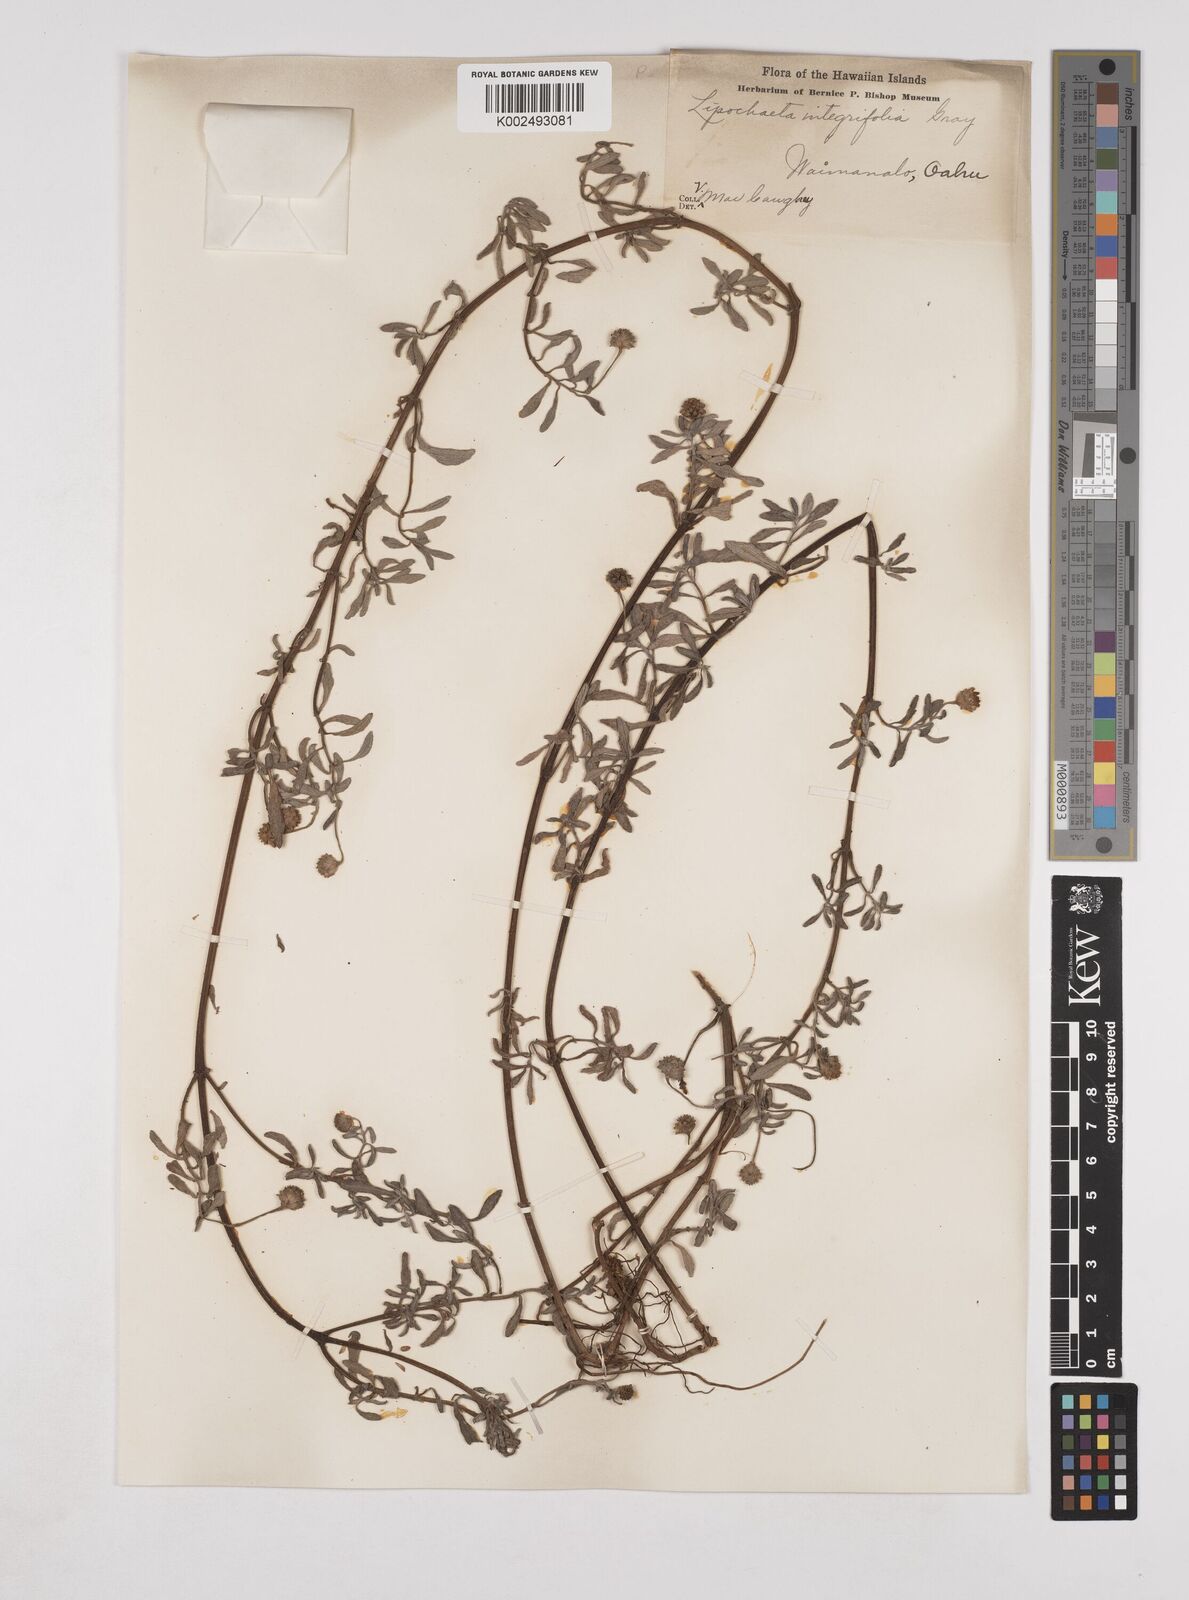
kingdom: Plantae
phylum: Tracheophyta
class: Magnoliopsida
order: Asterales
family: Asteraceae
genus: Lipochaeta
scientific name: Lipochaeta integrifolia
